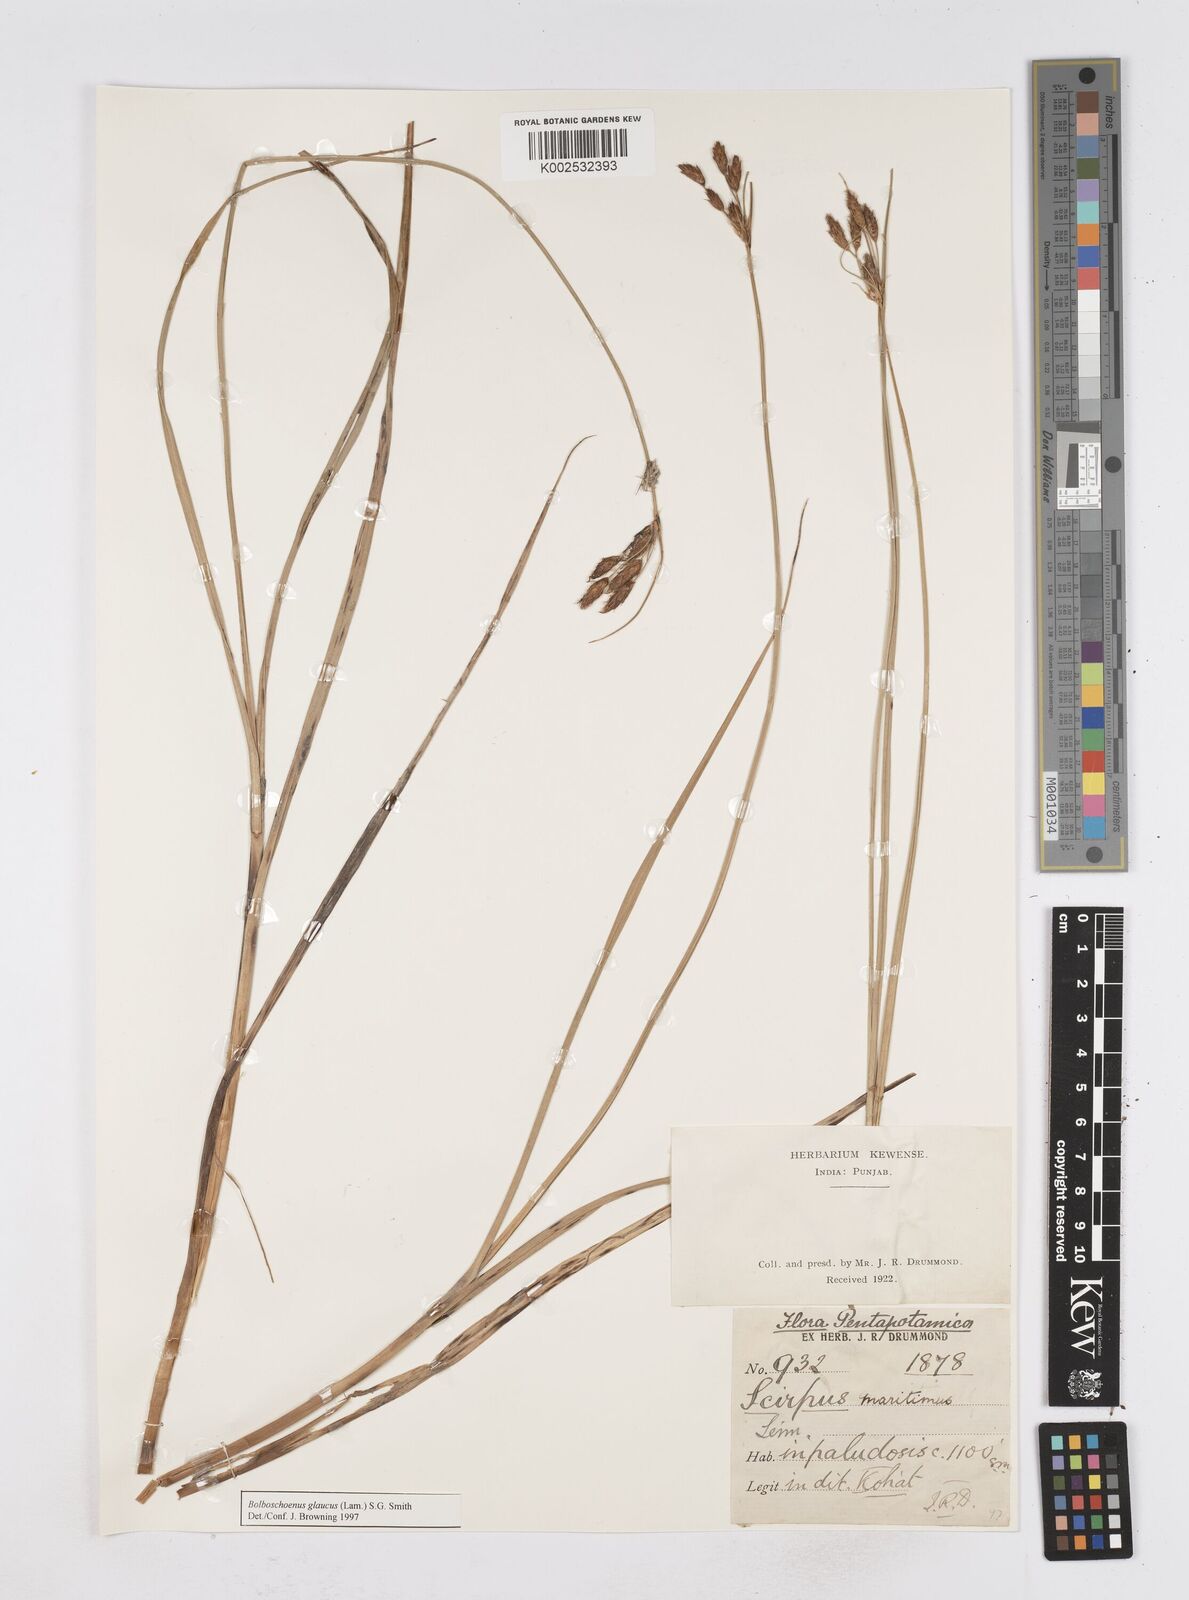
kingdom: Plantae
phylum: Tracheophyta
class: Liliopsida
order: Poales
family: Cyperaceae
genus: Bolboschoenus
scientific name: Bolboschoenus maritimus
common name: Sea club-rush
